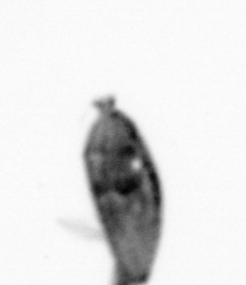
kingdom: Animalia
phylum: Arthropoda
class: Maxillopoda
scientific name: Maxillopoda
